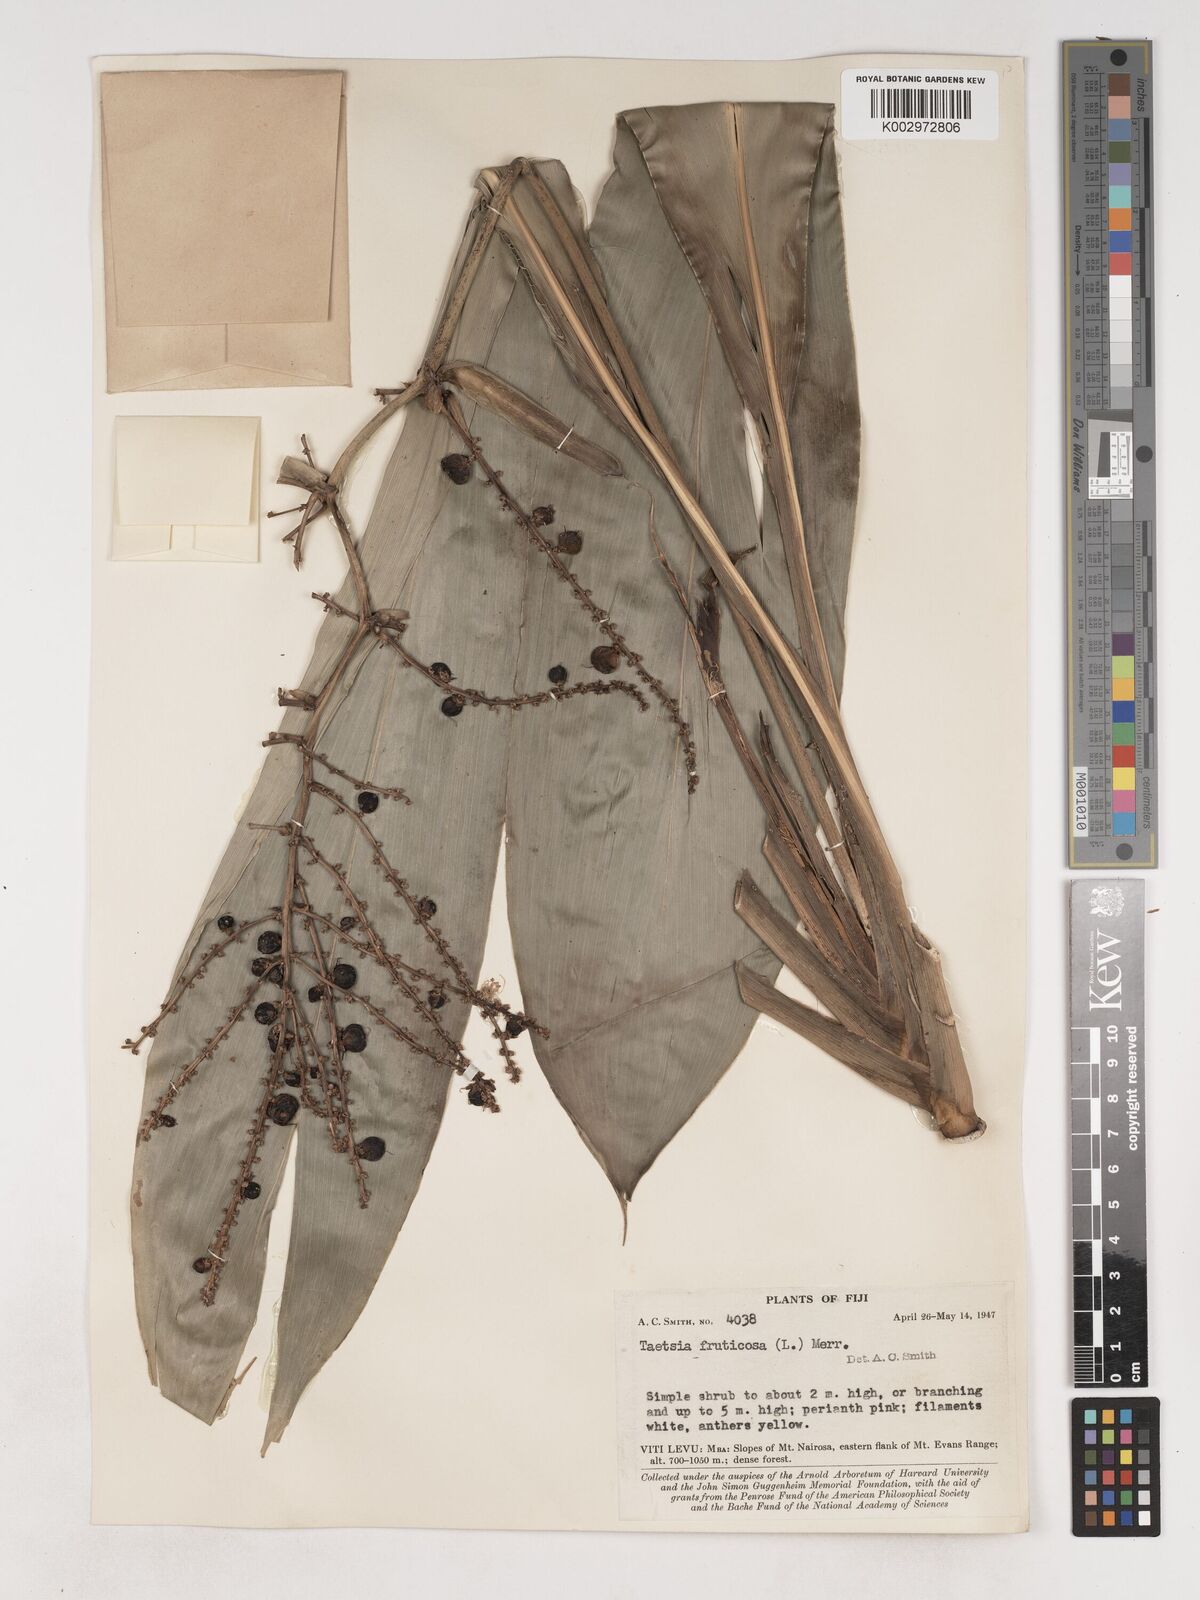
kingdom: Plantae
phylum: Tracheophyta
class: Liliopsida
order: Asparagales
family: Asparagaceae
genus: Cordyline
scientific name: Cordyline fruticosa
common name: Good-luck-plant
